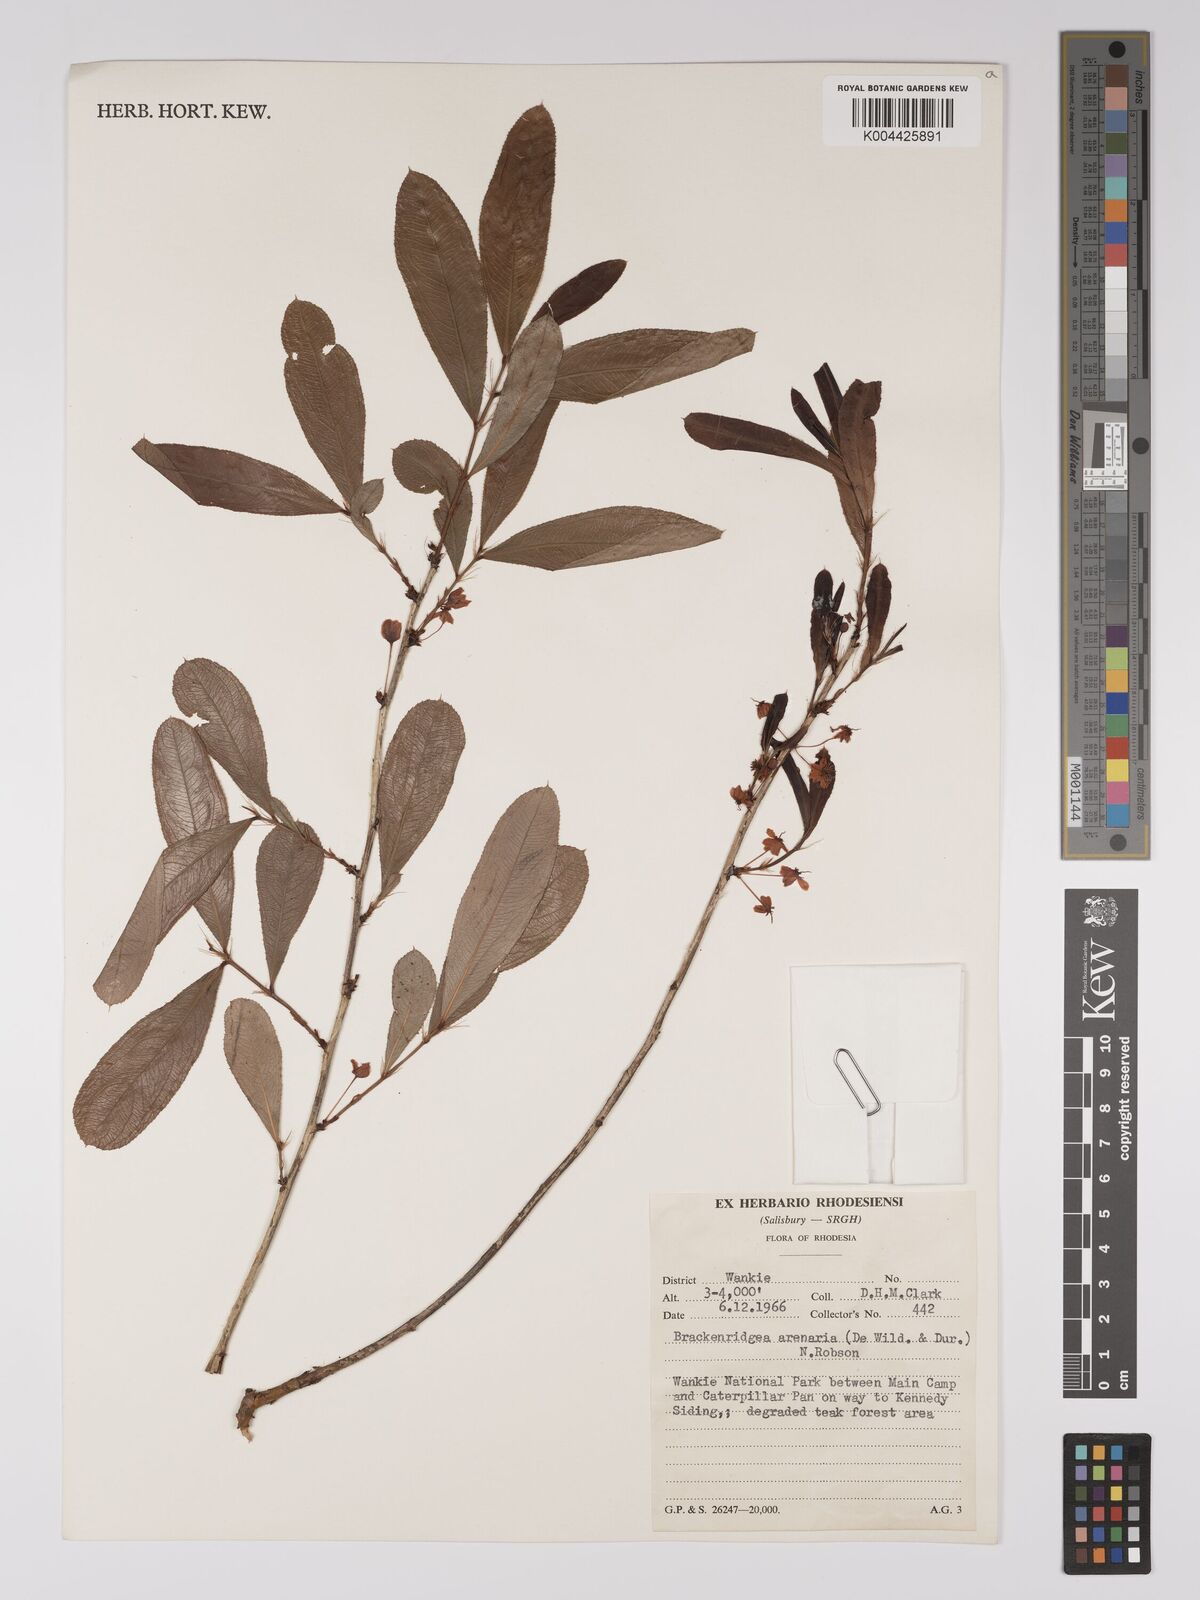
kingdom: Plantae
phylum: Tracheophyta
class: Magnoliopsida
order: Malpighiales
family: Ochnaceae
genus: Ochna
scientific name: Ochna arenaria
